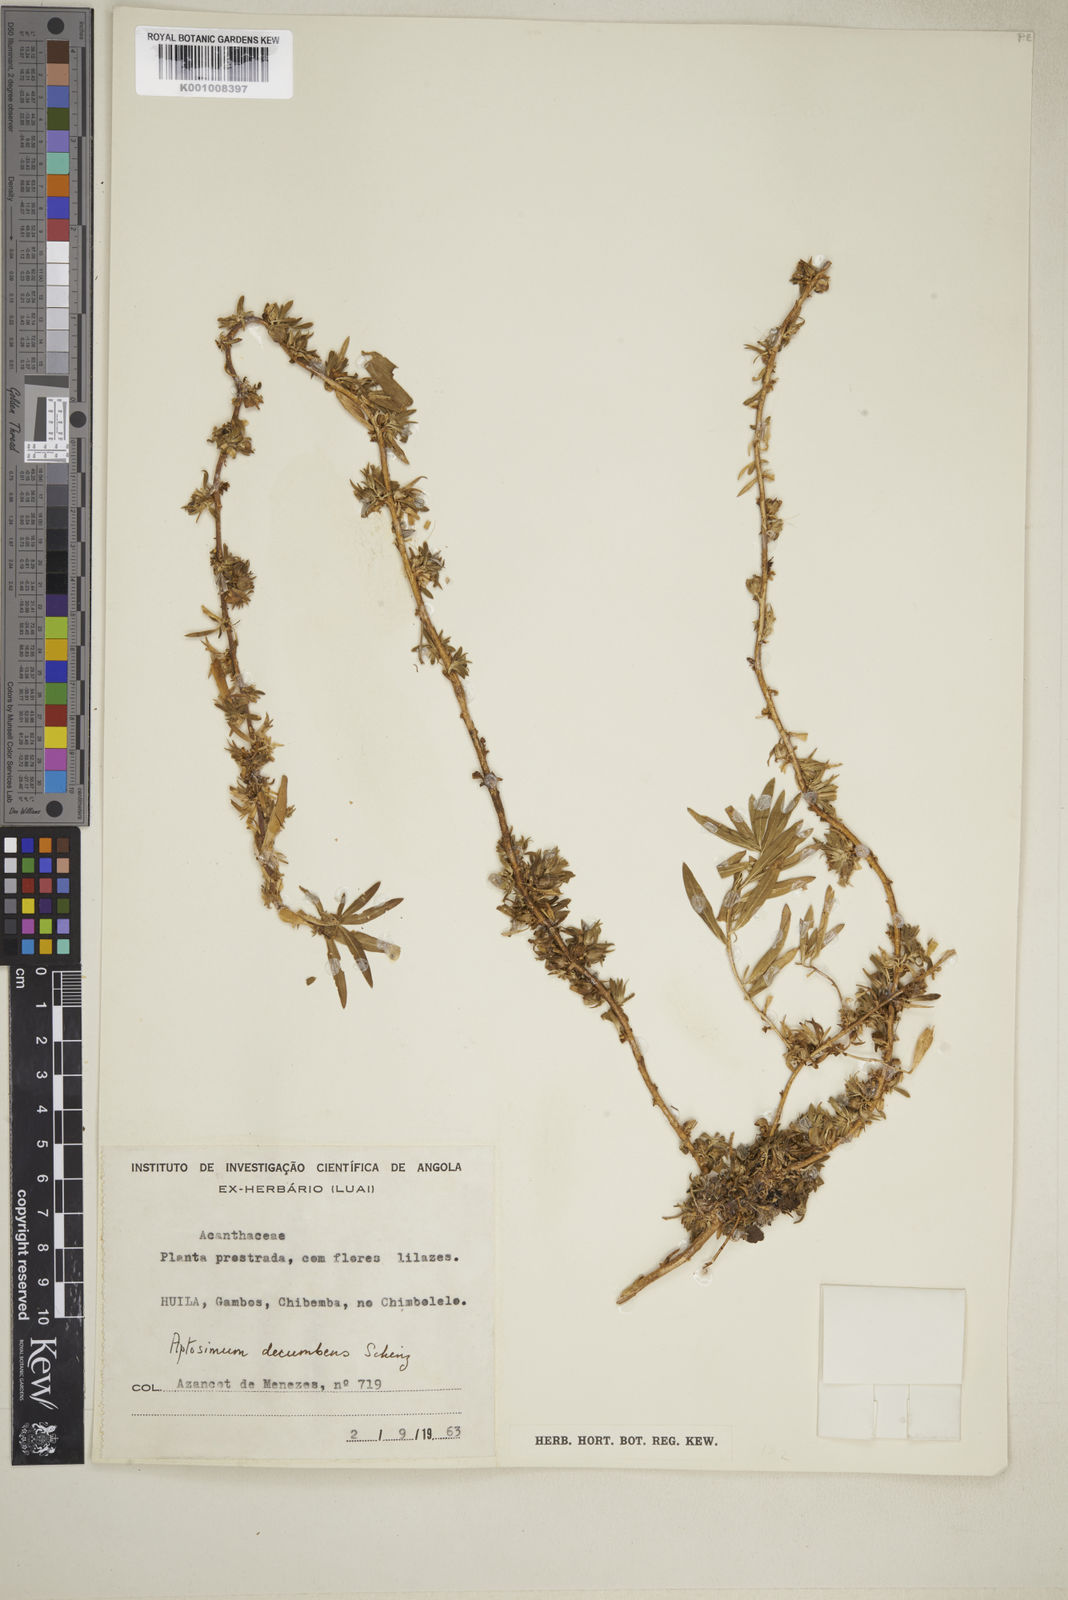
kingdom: Plantae
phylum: Tracheophyta
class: Magnoliopsida
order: Lamiales
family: Scrophulariaceae
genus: Aptosimum
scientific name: Aptosimum decumbens
